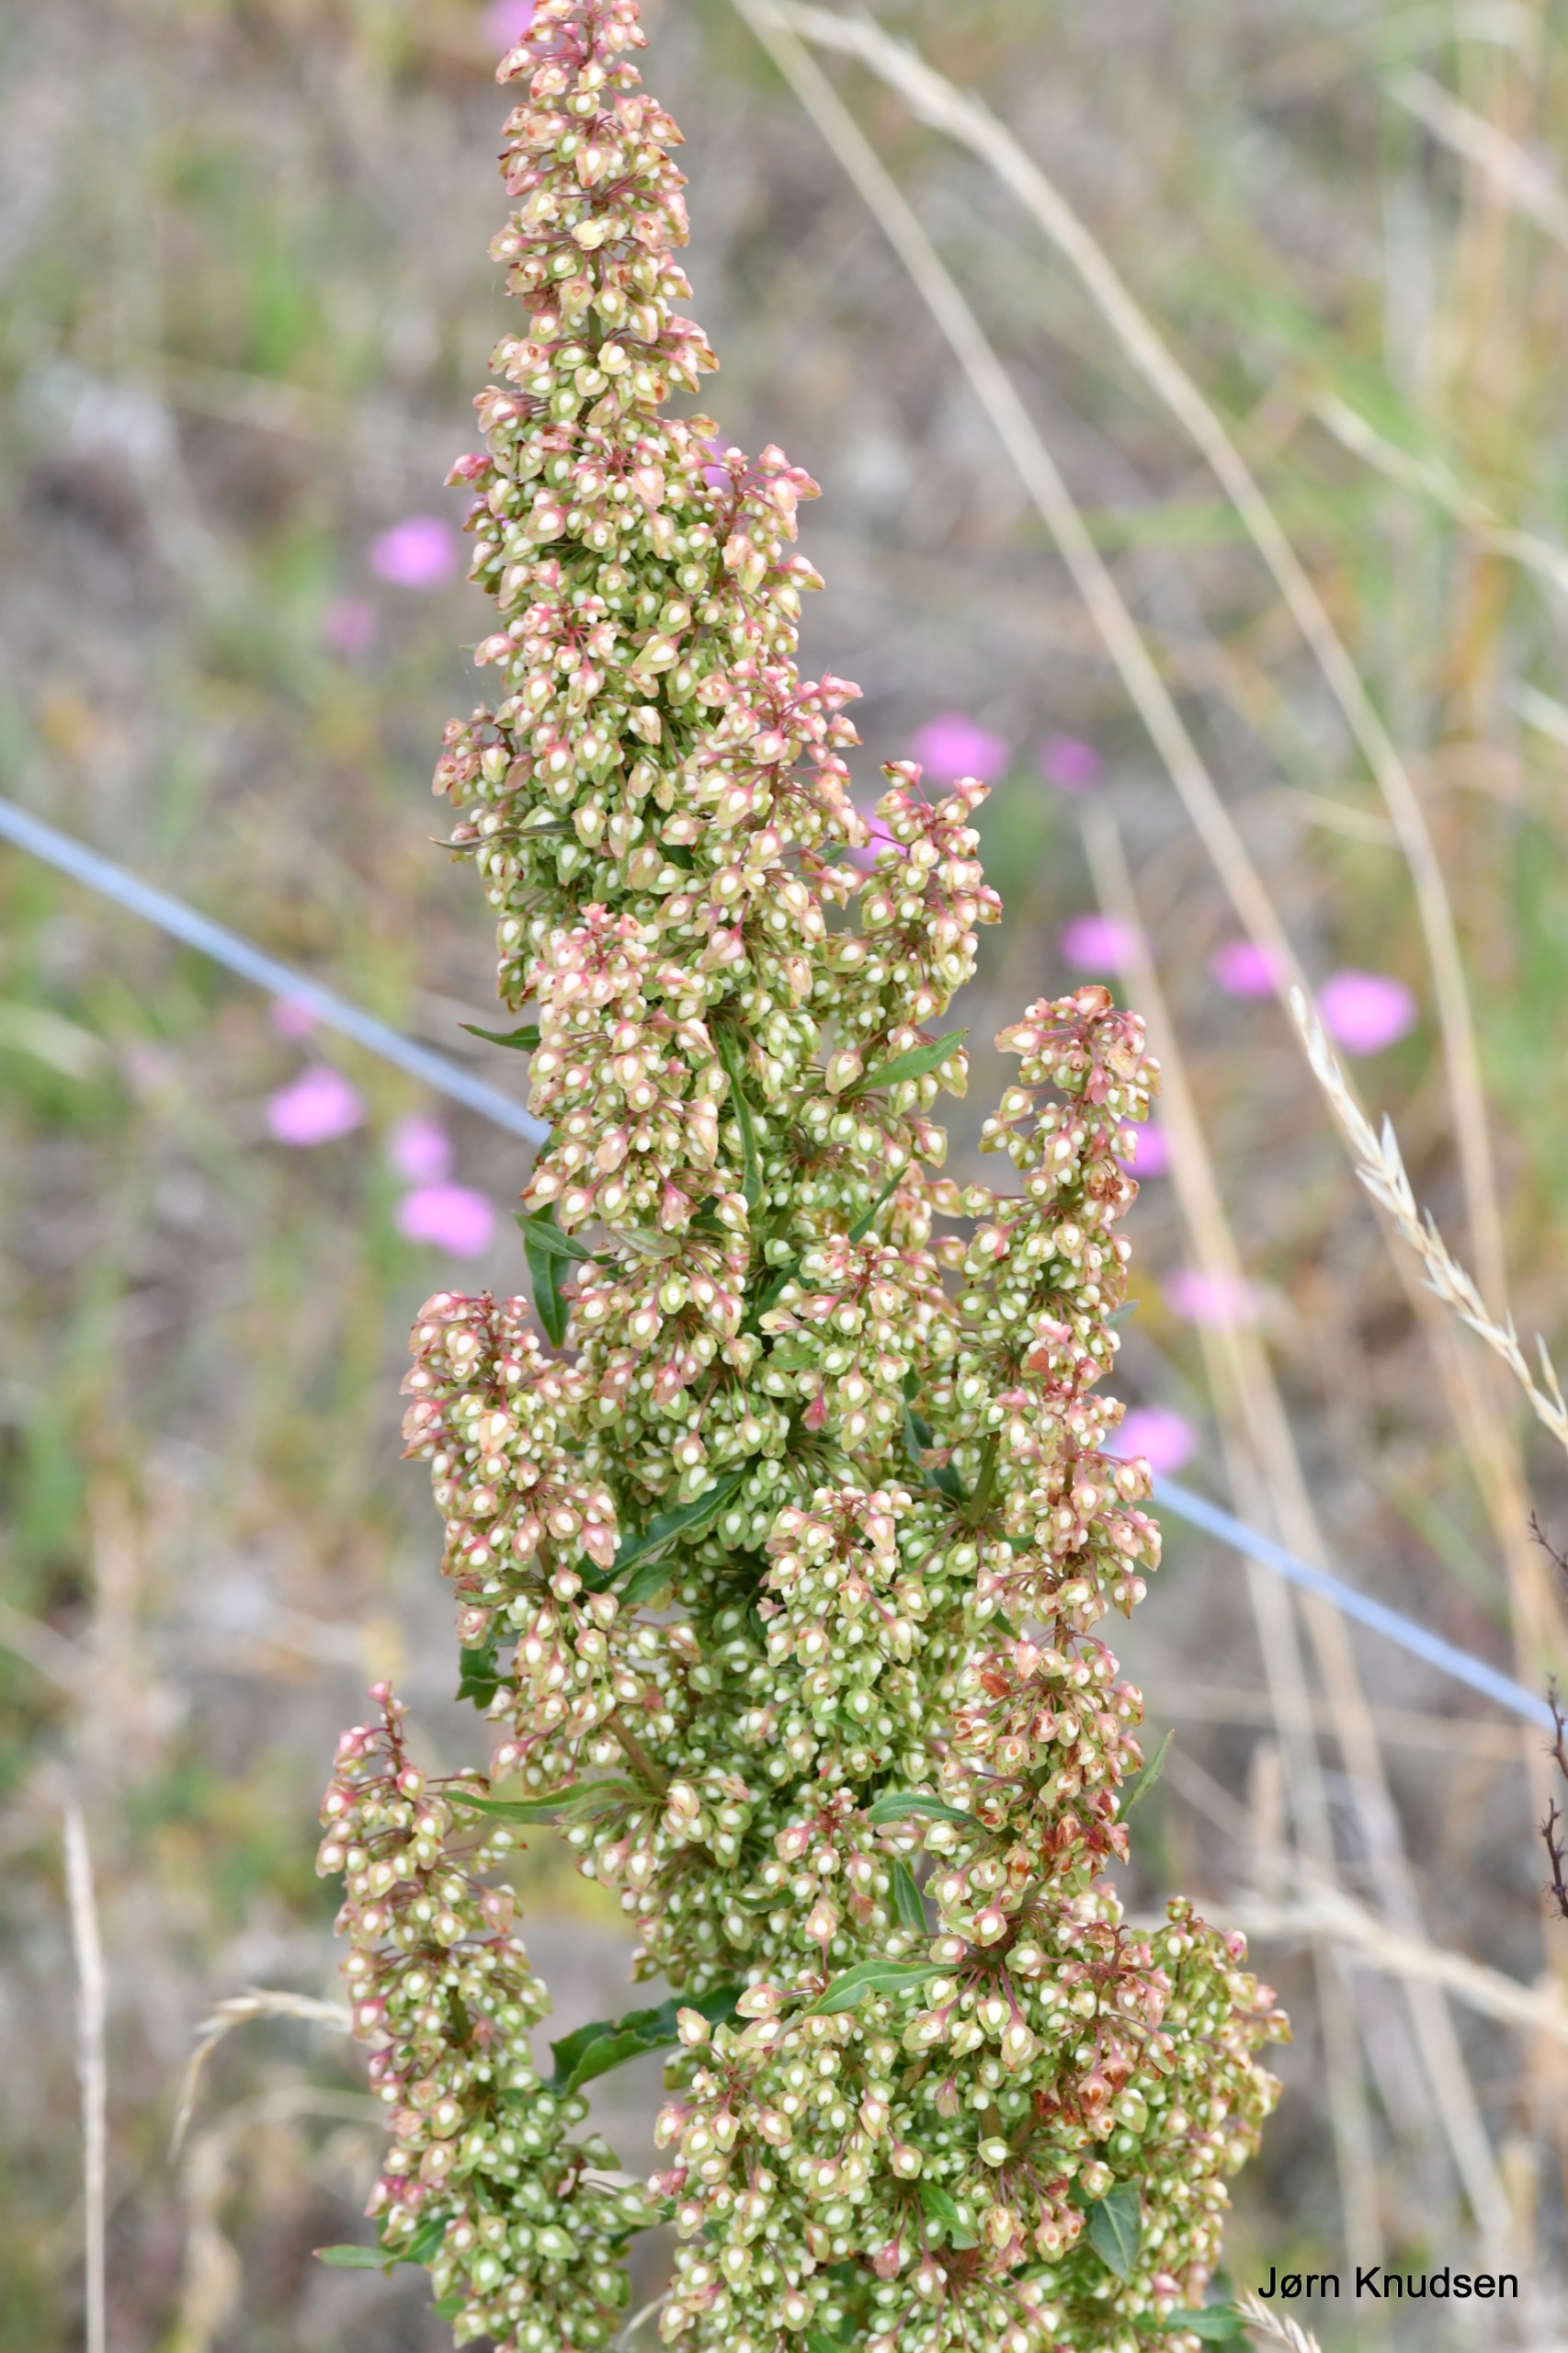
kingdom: Plantae
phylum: Tracheophyta
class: Magnoliopsida
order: Caryophyllales
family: Polygonaceae
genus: Rumex
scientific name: Rumex crispus
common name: Kruset skræppe
